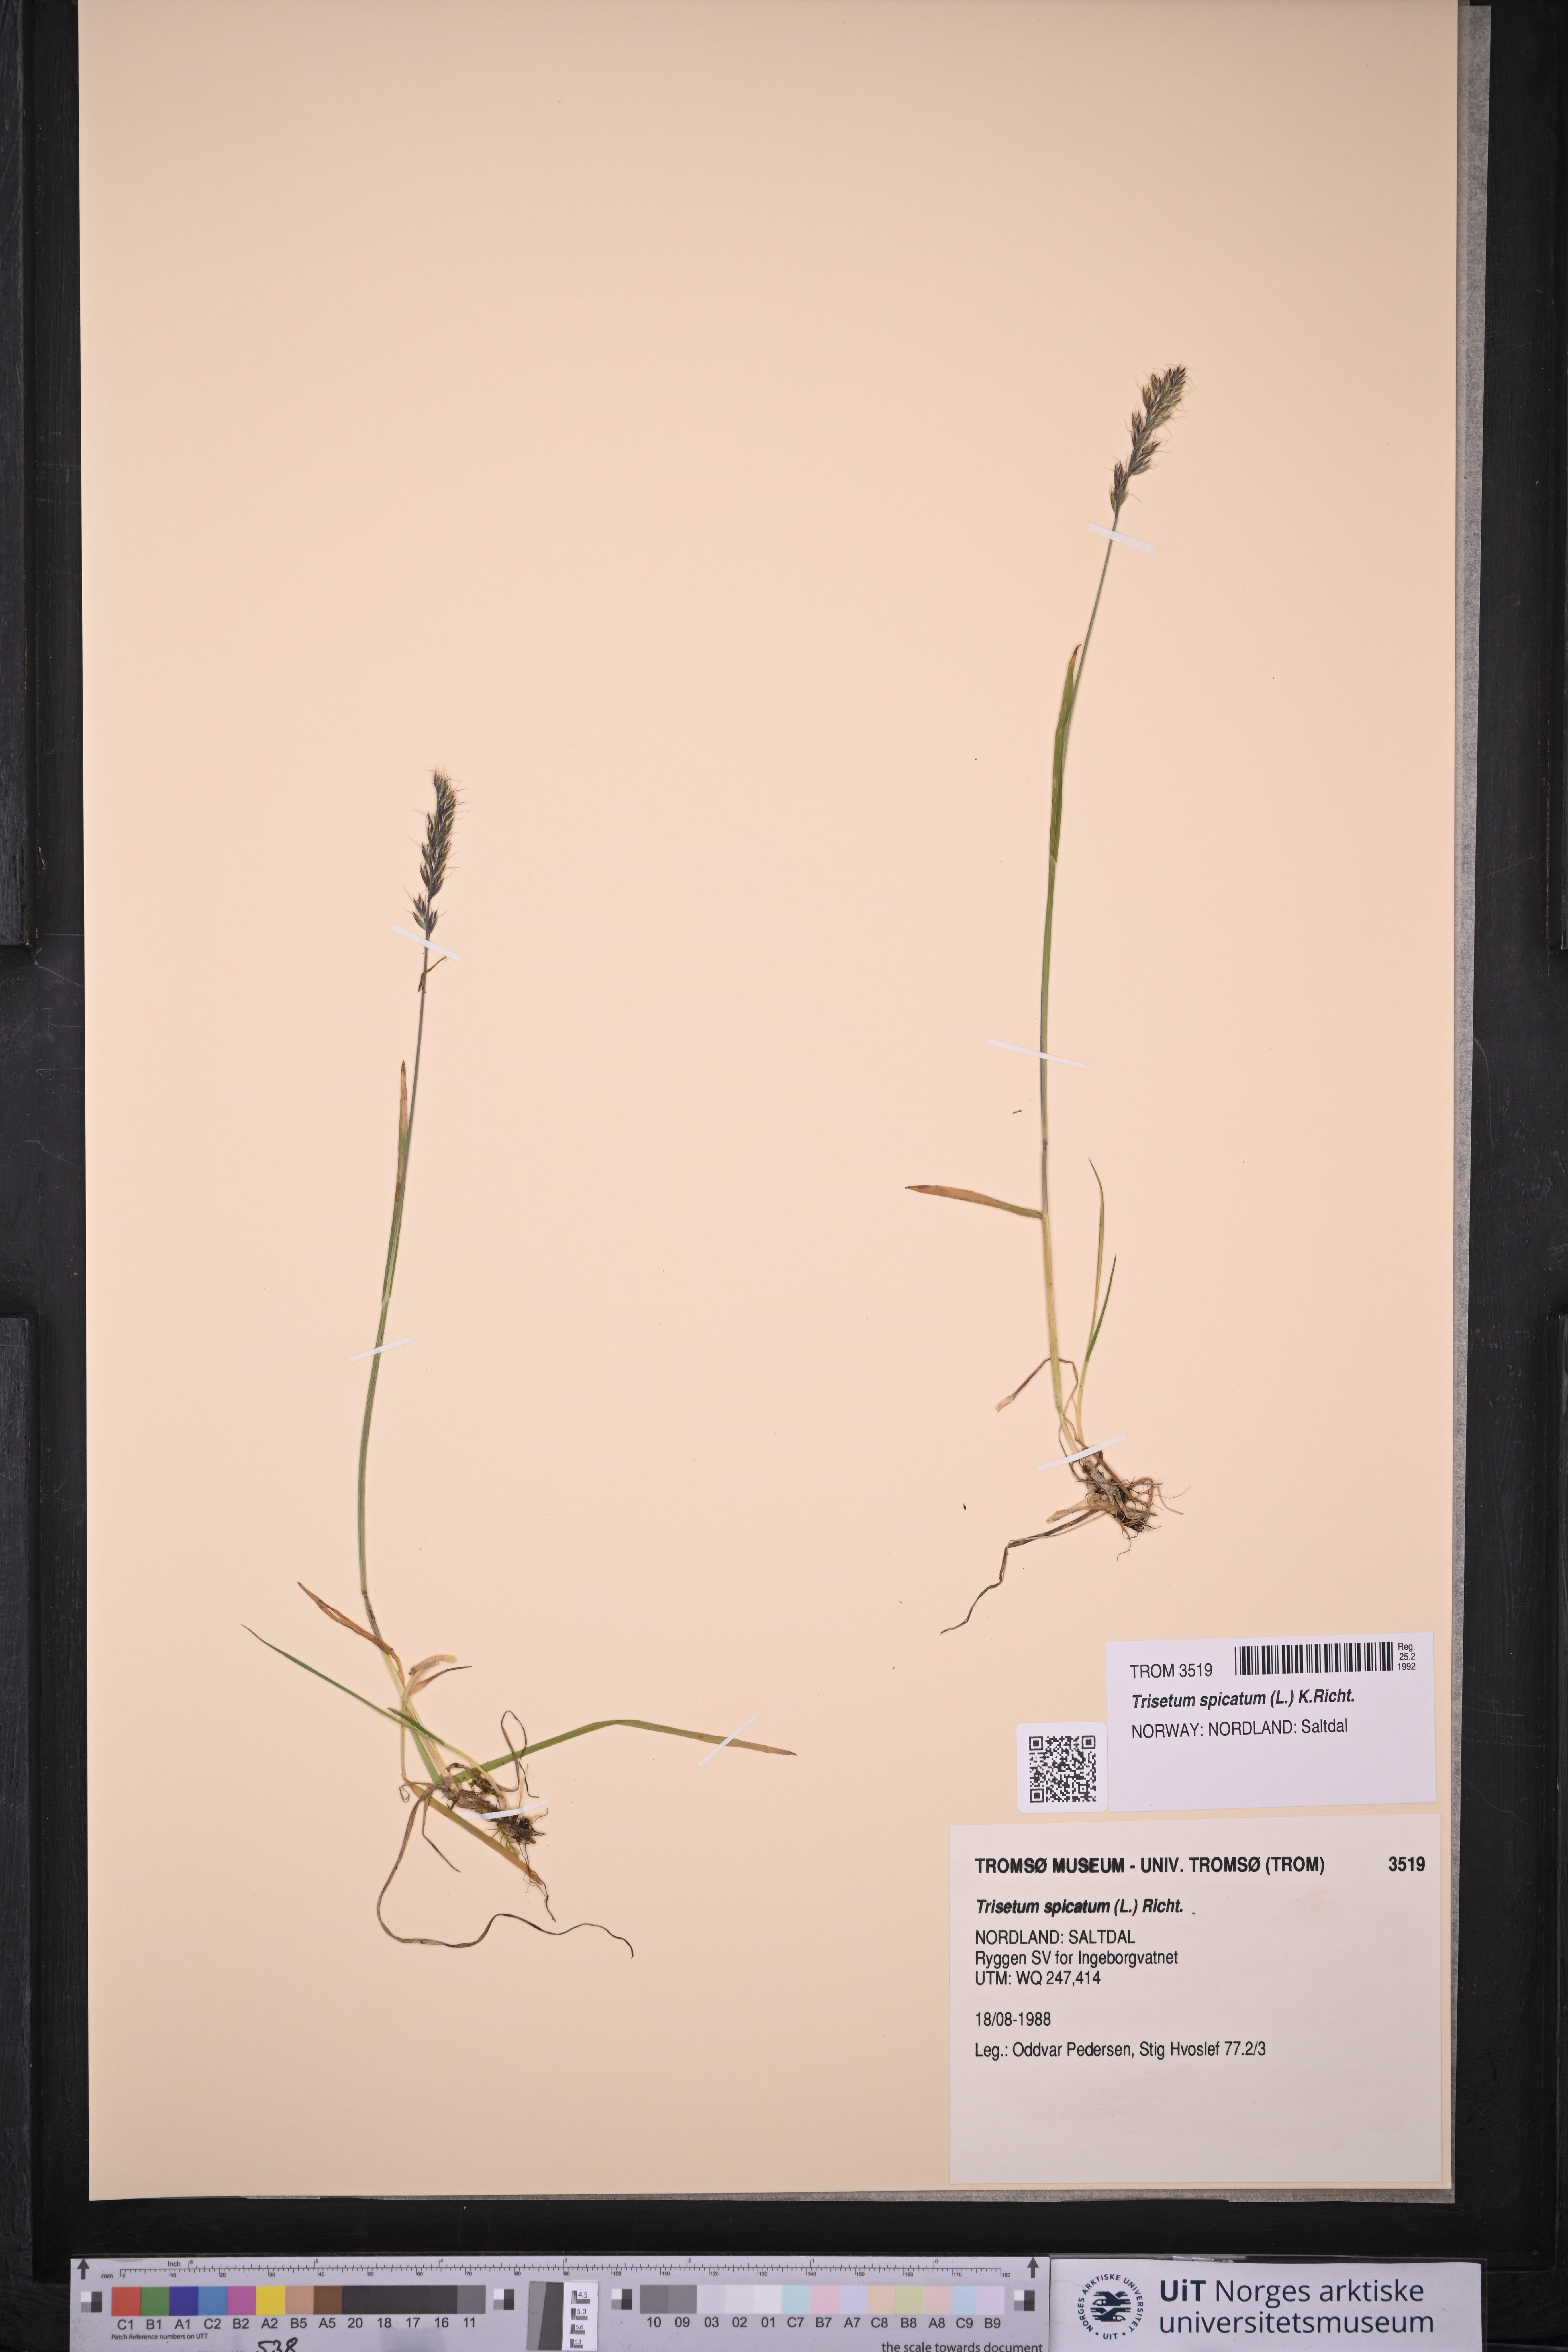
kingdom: Plantae
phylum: Tracheophyta
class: Liliopsida
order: Poales
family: Poaceae
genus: Koeleria
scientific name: Koeleria spicata
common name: Mountain trisetum
